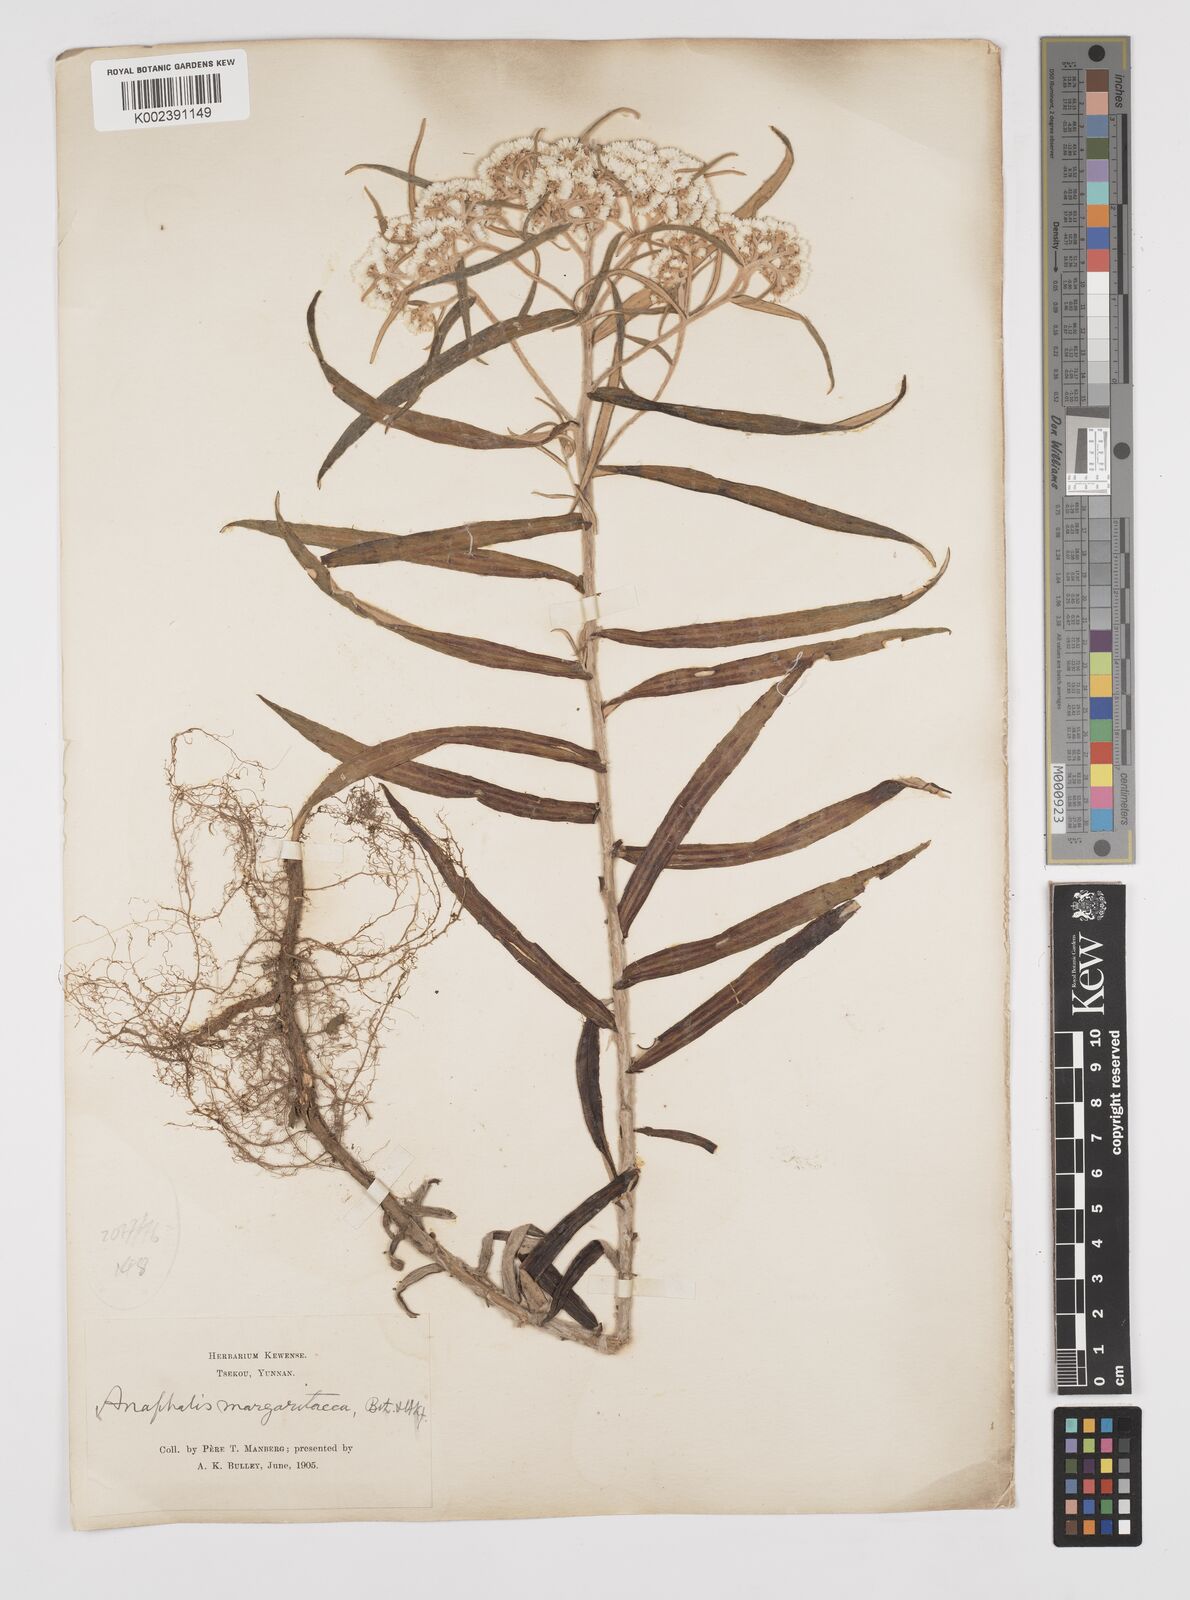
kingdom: Plantae
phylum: Tracheophyta
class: Magnoliopsida
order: Asterales
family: Asteraceae
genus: Anaphalis
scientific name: Anaphalis margaritacea
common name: Pearly everlasting
